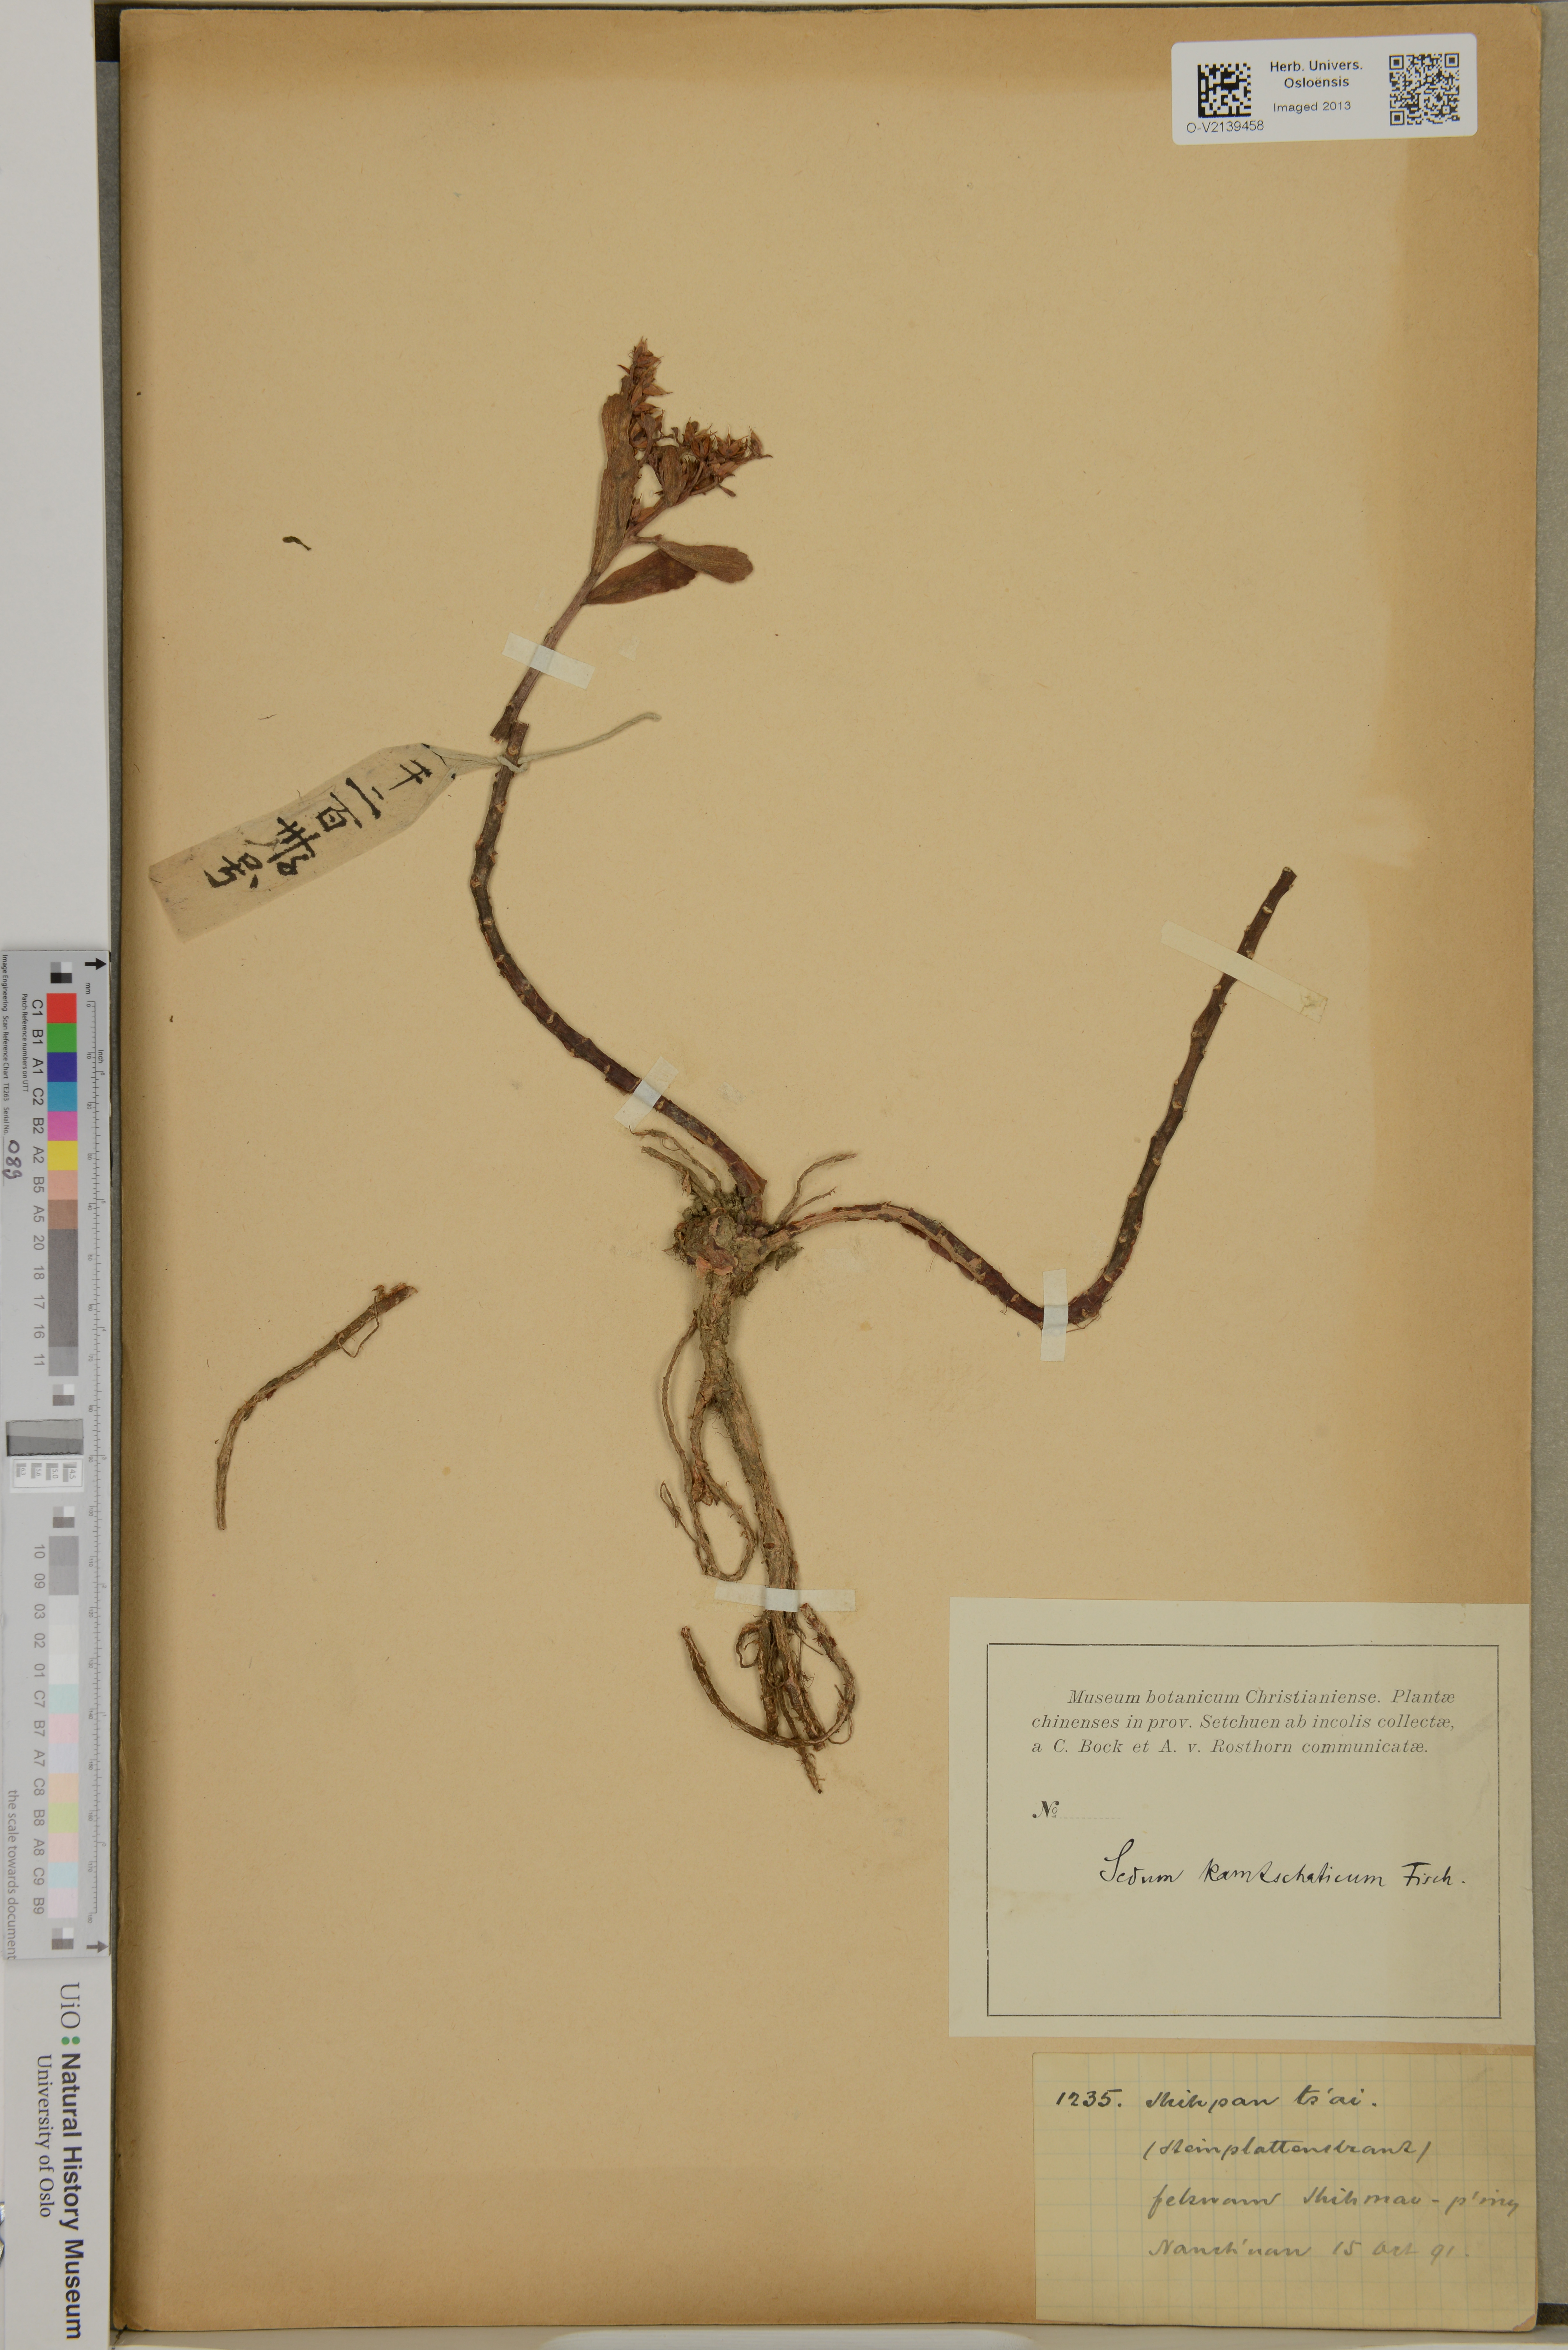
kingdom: Plantae
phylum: Tracheophyta
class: Magnoliopsida
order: Saxifragales
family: Crassulaceae
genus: Sedum
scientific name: Sedum ramentaceum
